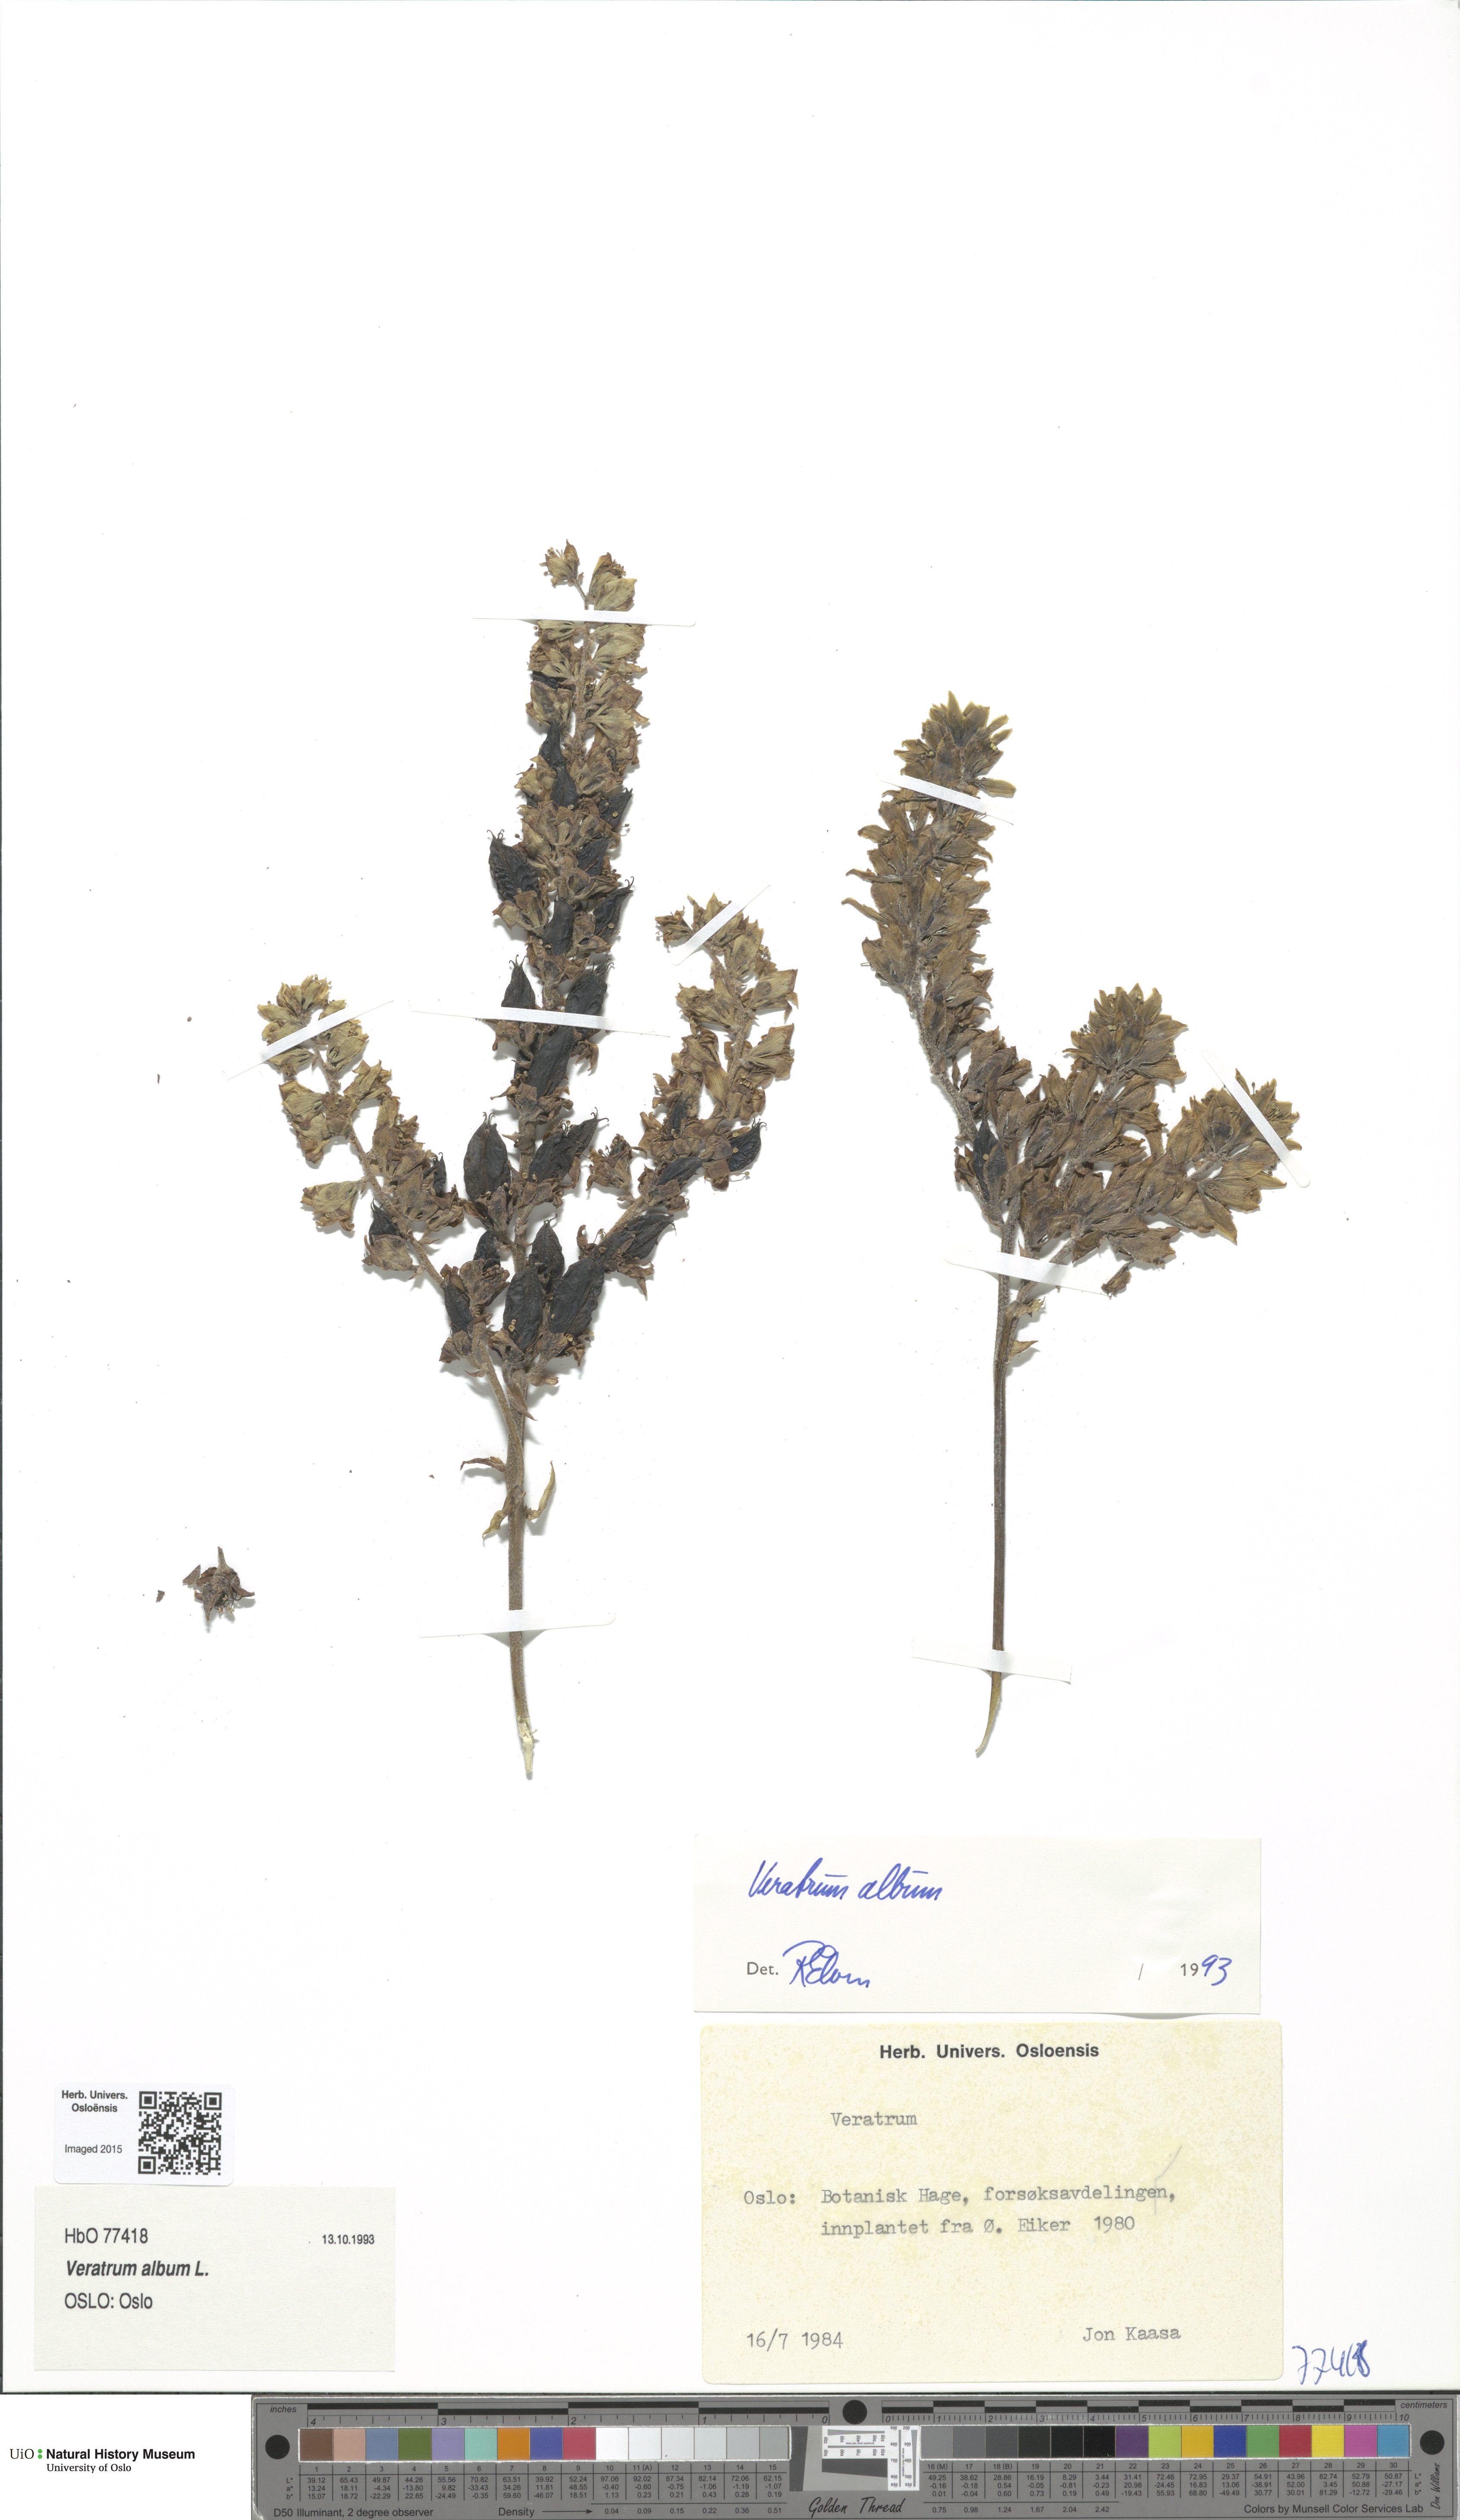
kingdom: Plantae
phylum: Tracheophyta
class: Liliopsida
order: Liliales
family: Melanthiaceae
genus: Veratrum
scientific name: Veratrum album
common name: White veratrum
